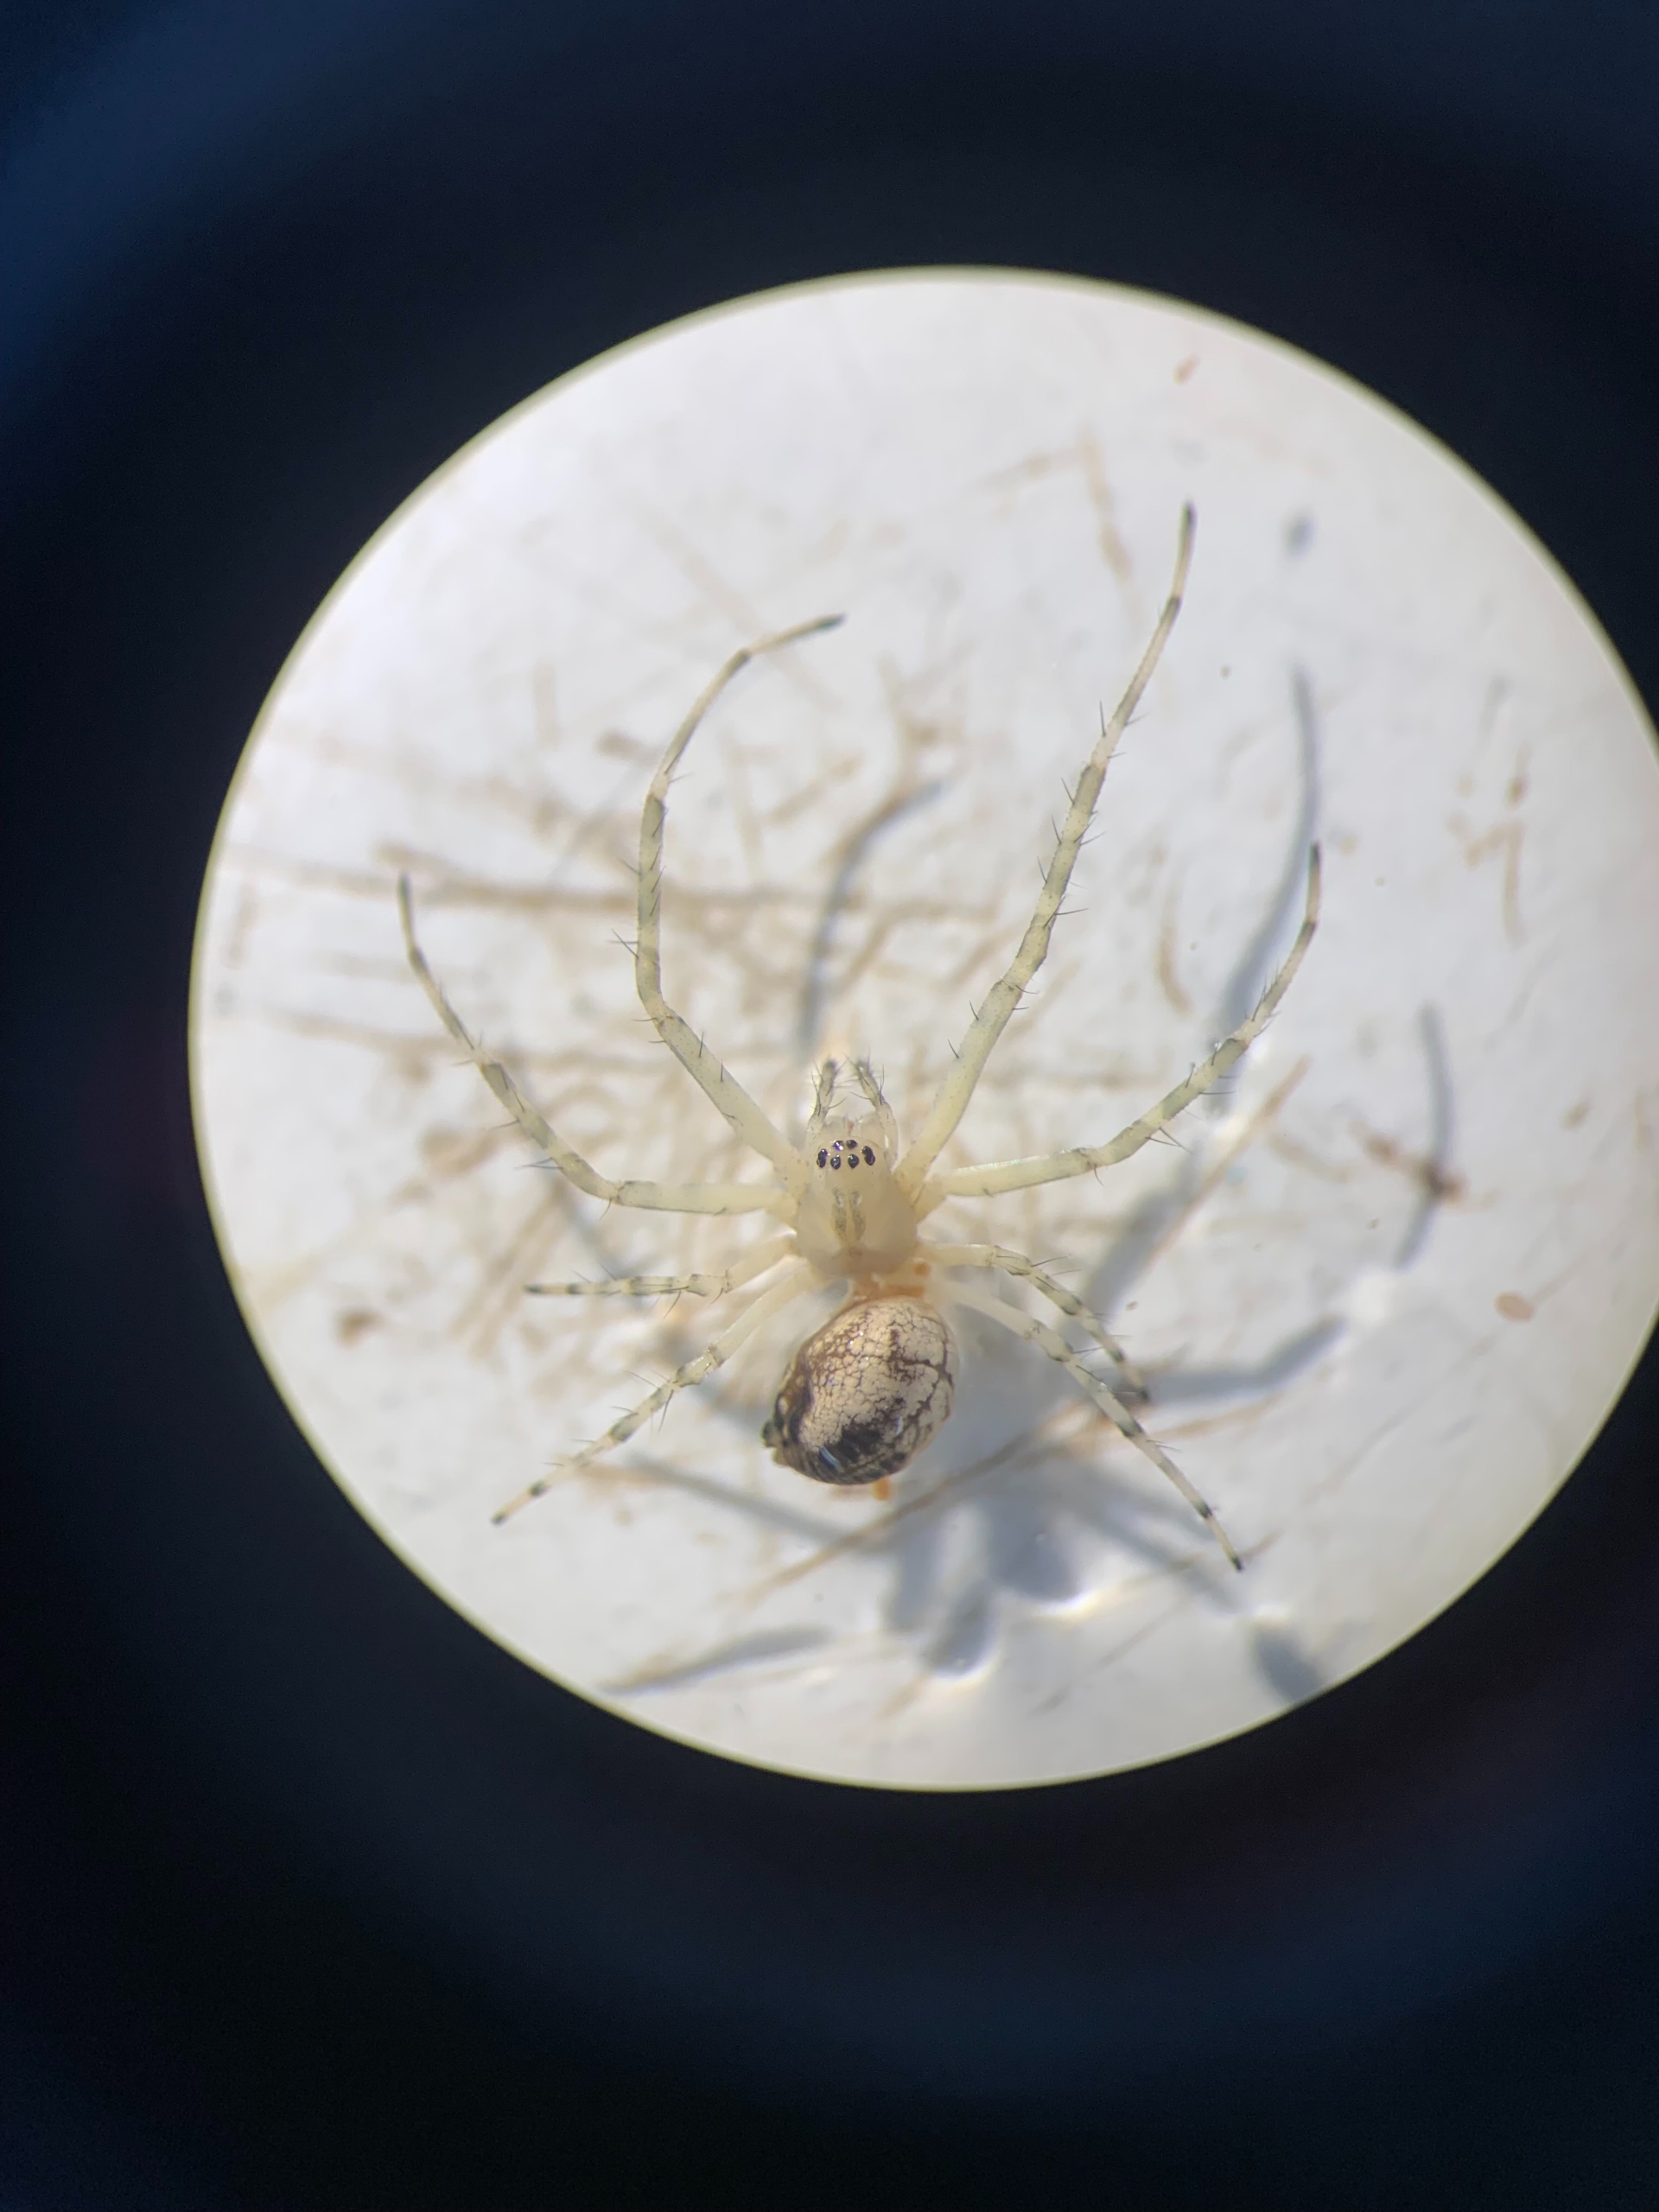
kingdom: Animalia
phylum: Arthropoda
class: Arachnida
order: Araneae
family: Tetragnathidae
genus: Metellina
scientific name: Metellina
